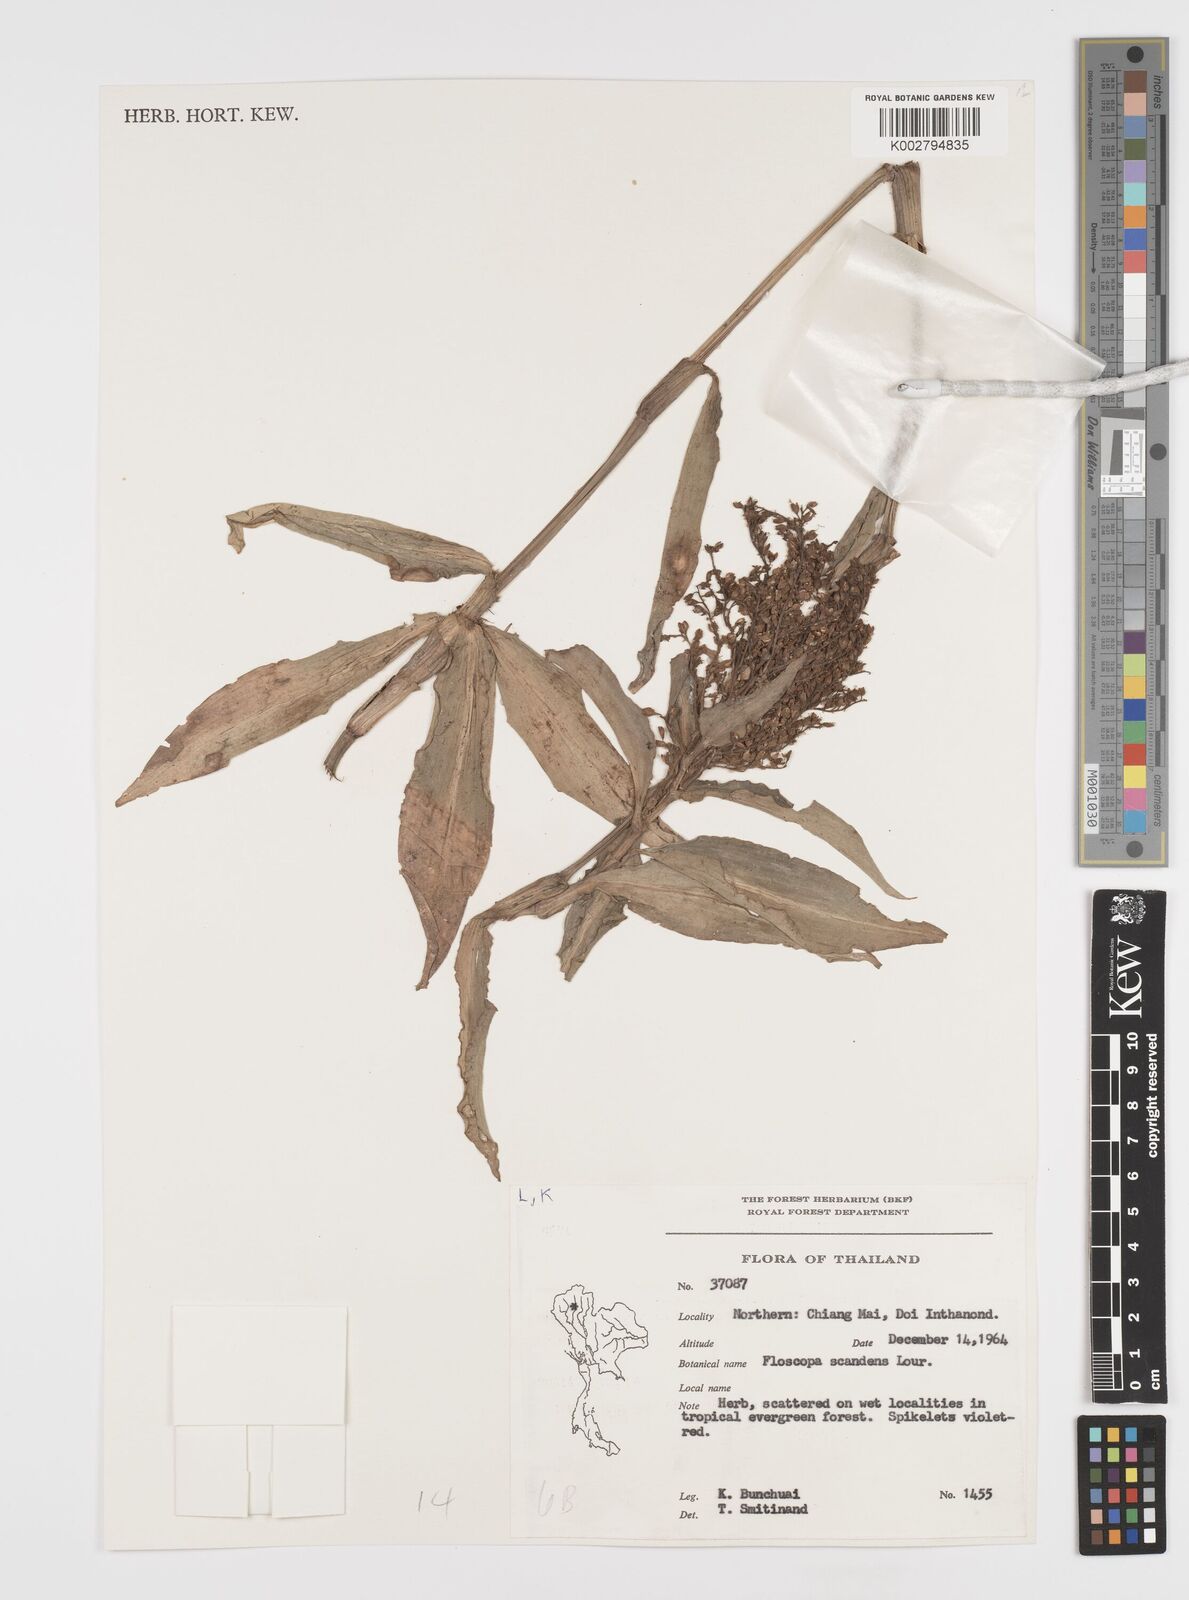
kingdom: Plantae
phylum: Tracheophyta
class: Liliopsida
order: Commelinales
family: Commelinaceae
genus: Floscopa
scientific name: Floscopa scandens
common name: Climbing flower cup
